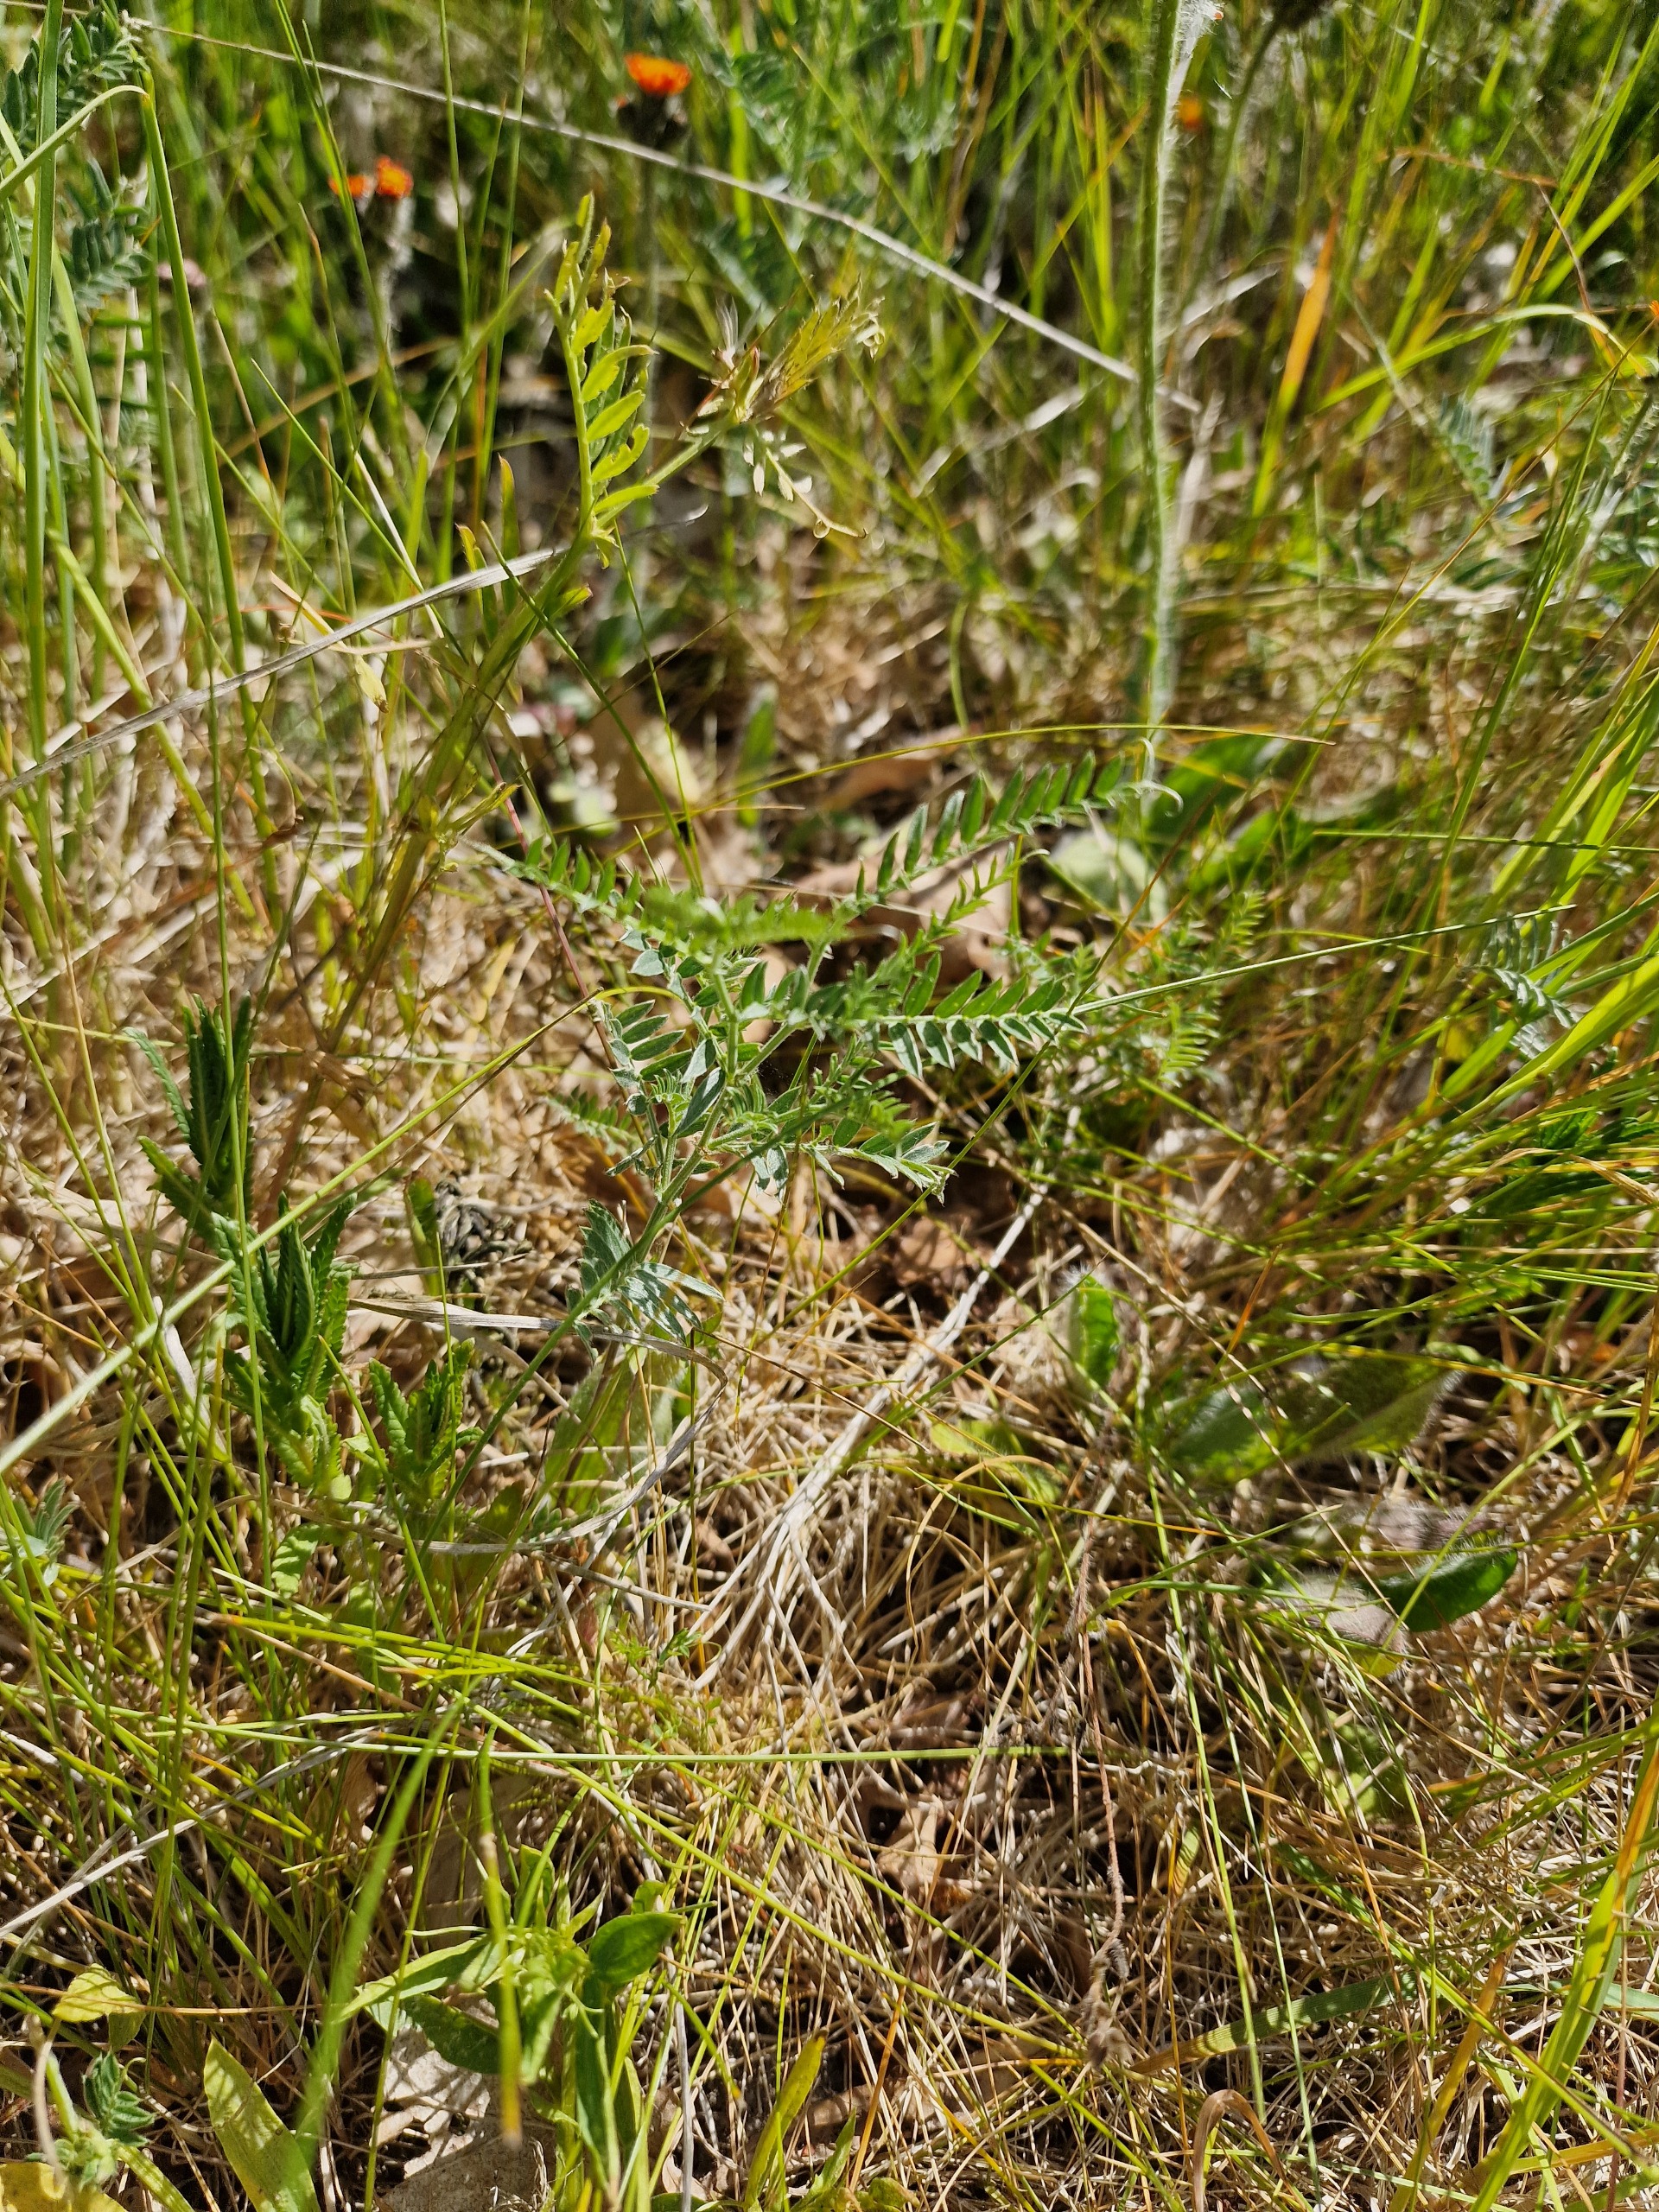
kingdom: Plantae
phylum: Tracheophyta
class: Magnoliopsida
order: Fabales
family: Fabaceae
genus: Vicia
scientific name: Vicia cracca
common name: Muse-vikke
